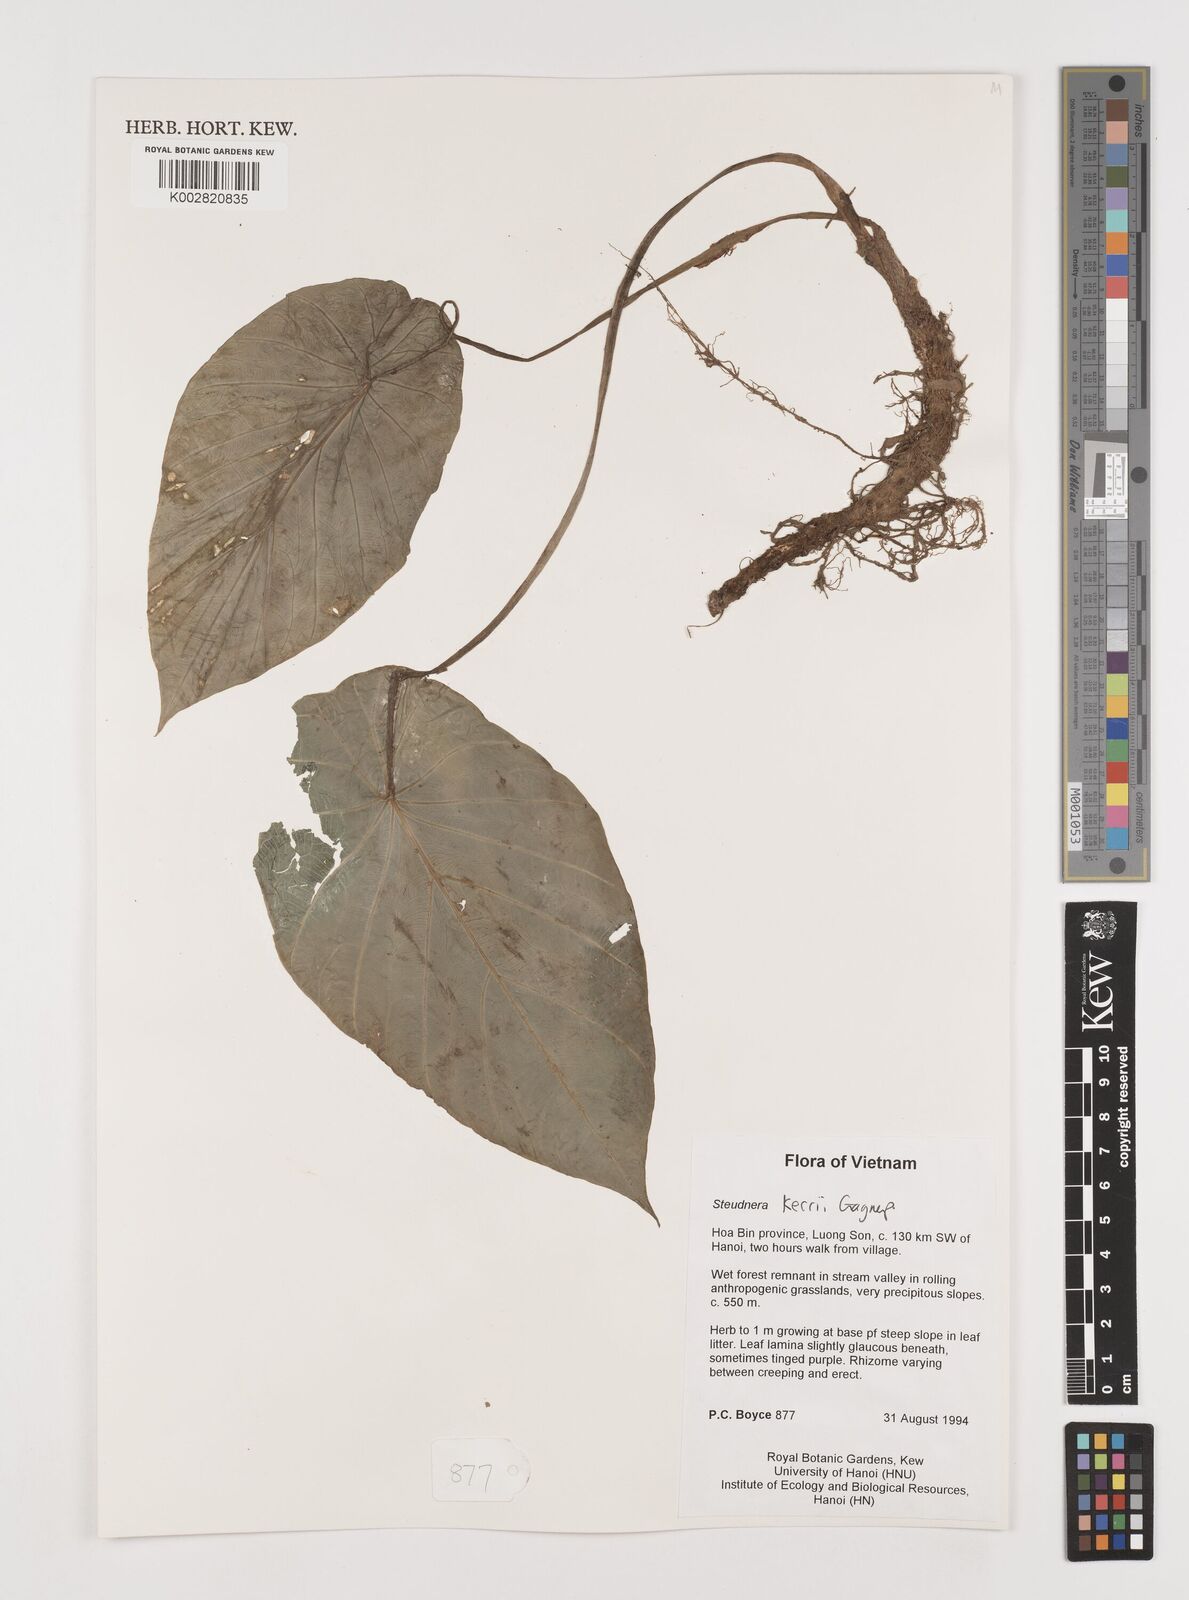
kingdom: Plantae
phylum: Tracheophyta
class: Liliopsida
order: Alismatales
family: Araceae
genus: Steudnera
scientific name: Steudnera kerrii
